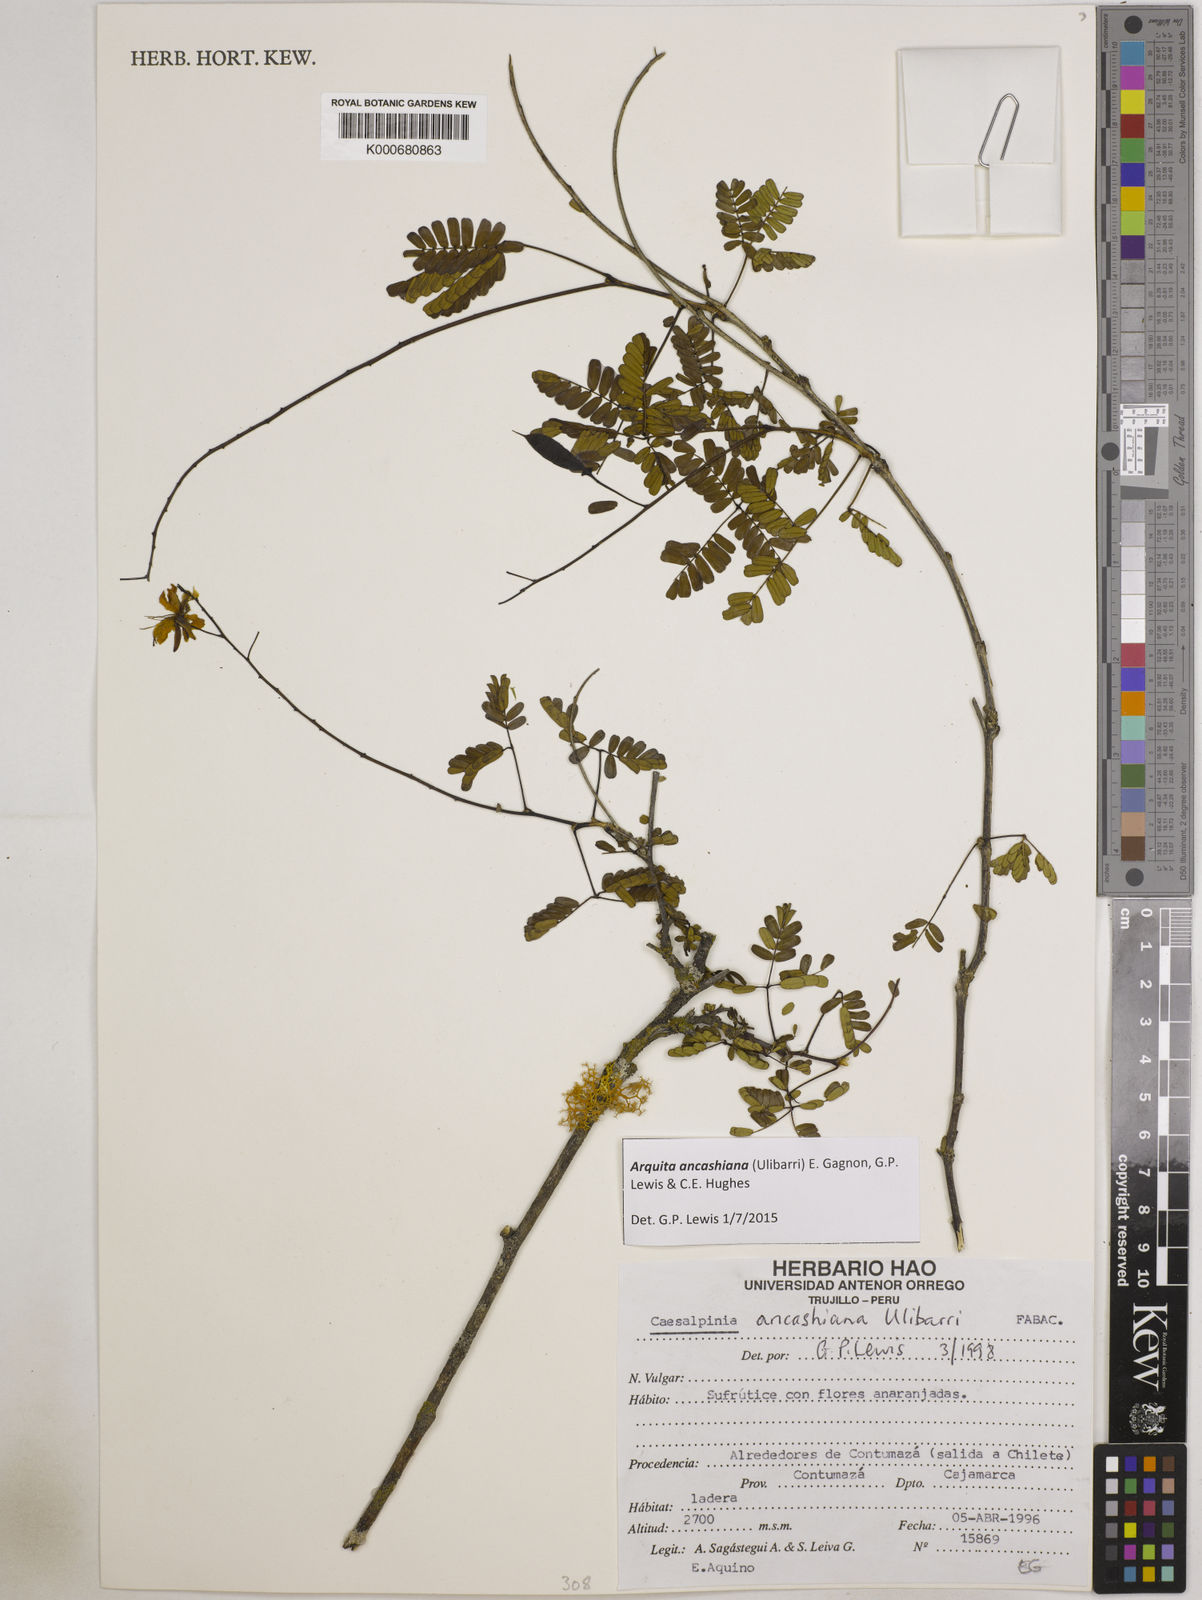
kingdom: Plantae
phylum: Tracheophyta
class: Magnoliopsida
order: Fabales
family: Fabaceae
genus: Arquita
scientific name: Arquita ancashiana
